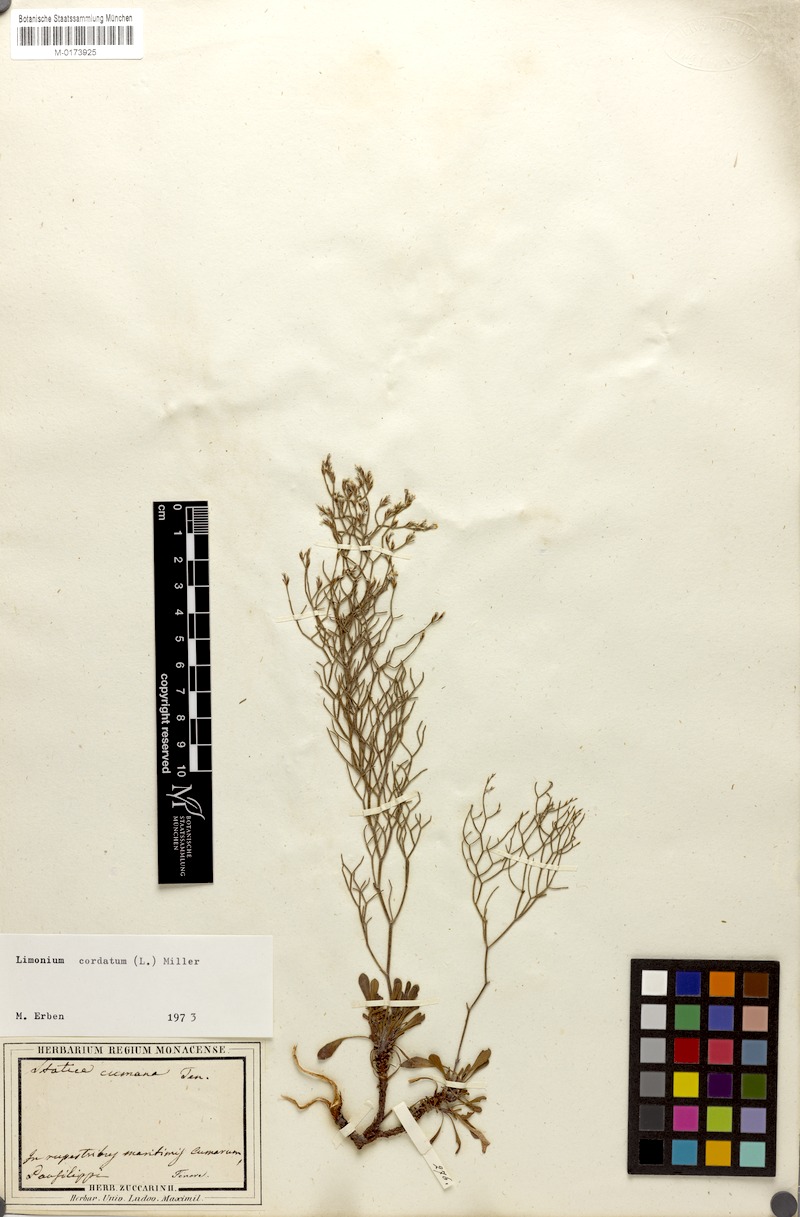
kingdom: Plantae
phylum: Tracheophyta
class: Magnoliopsida
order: Caryophyllales
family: Plumbaginaceae
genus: Limonium
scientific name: Limonium cordatum
